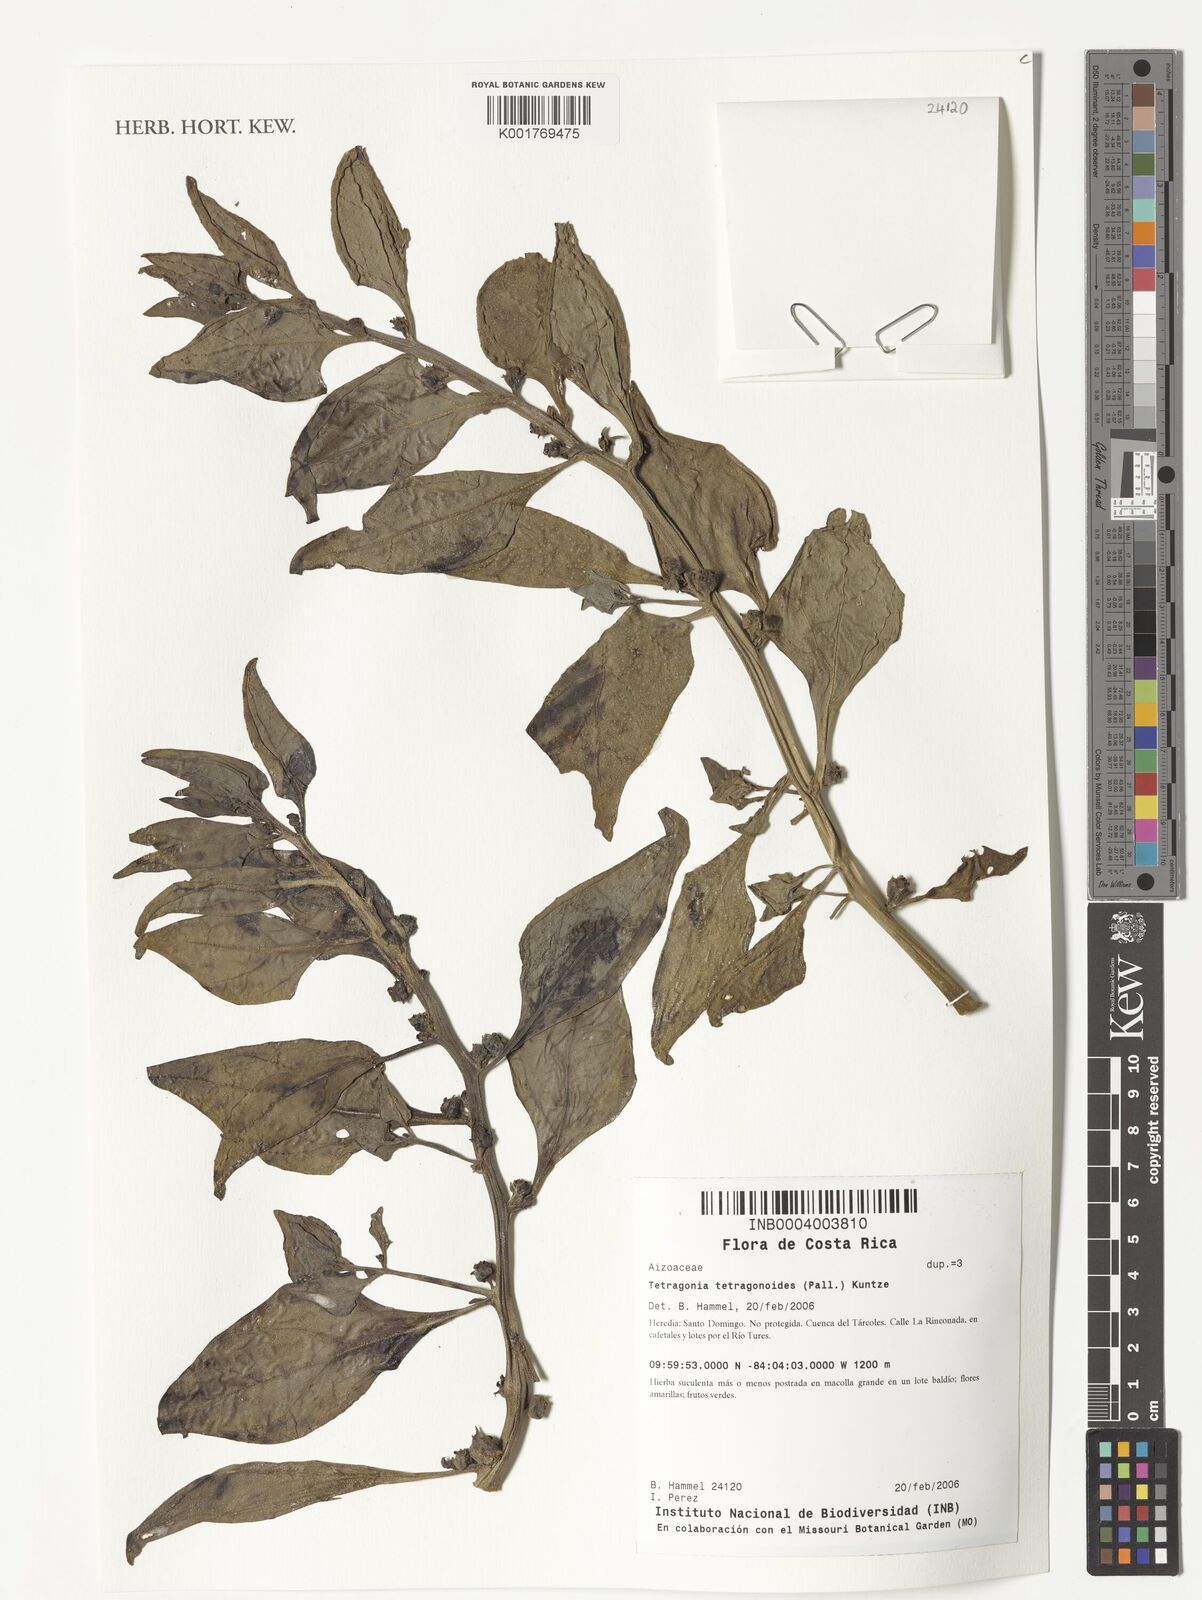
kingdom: Plantae
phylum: Tracheophyta
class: Magnoliopsida
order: Caryophyllales
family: Aizoaceae
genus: Tetragonia
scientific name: Tetragonia tetragonoides
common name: New zealand-spinach
